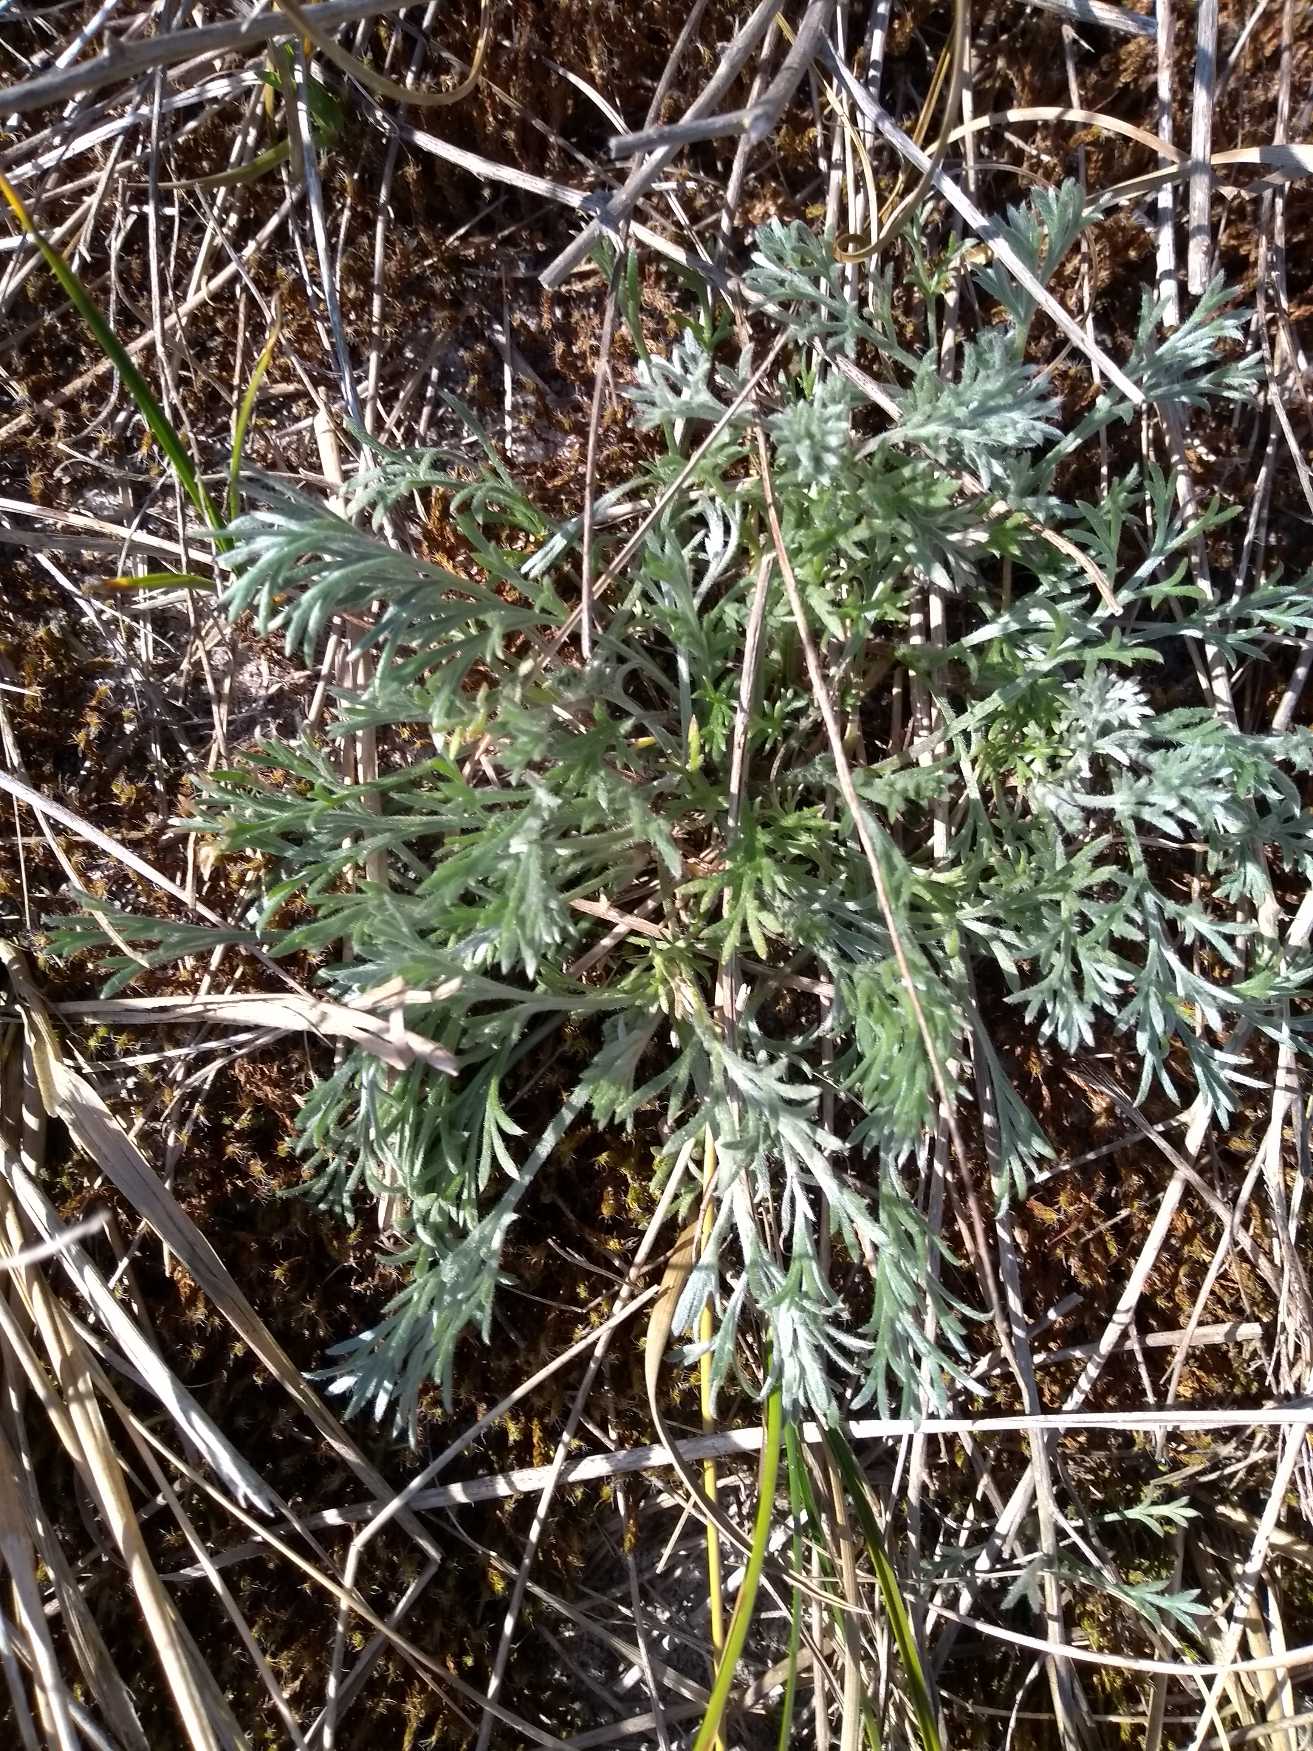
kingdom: Plantae
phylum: Tracheophyta
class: Magnoliopsida
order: Asterales
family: Asteraceae
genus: Artemisia
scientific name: Artemisia campestris
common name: Mark-bynke
